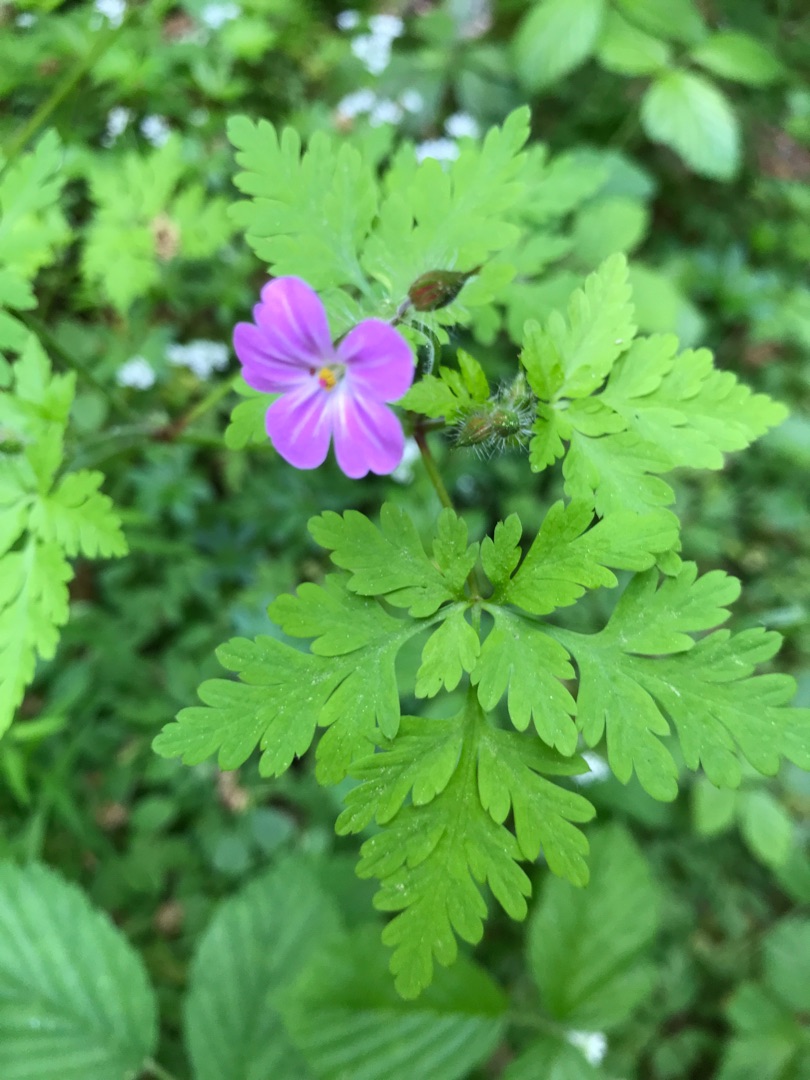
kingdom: Plantae
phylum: Tracheophyta
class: Magnoliopsida
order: Geraniales
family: Geraniaceae
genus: Geranium
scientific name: Geranium robertianum
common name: Stinkende storkenæb
